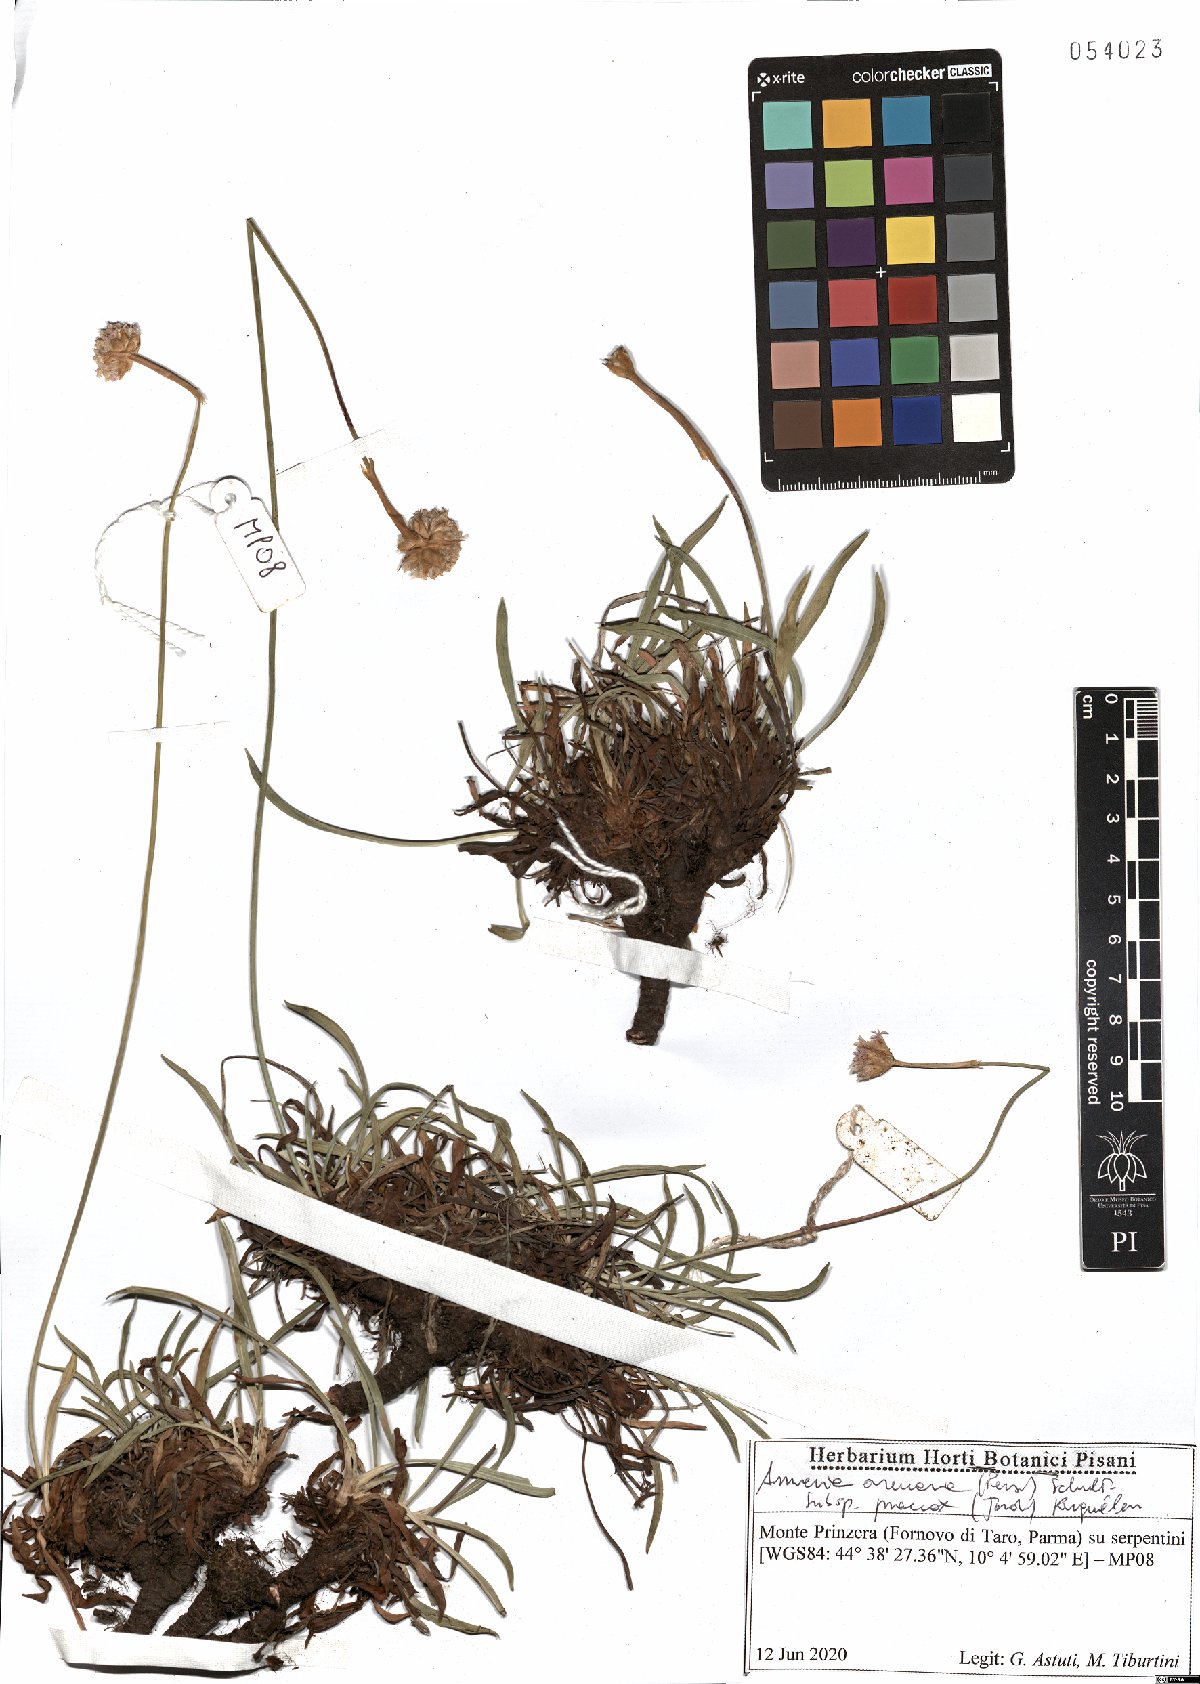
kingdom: Plantae
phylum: Tracheophyta
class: Magnoliopsida
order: Caryophyllales
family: Plumbaginaceae
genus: Armeria
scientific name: Armeria arenaria
